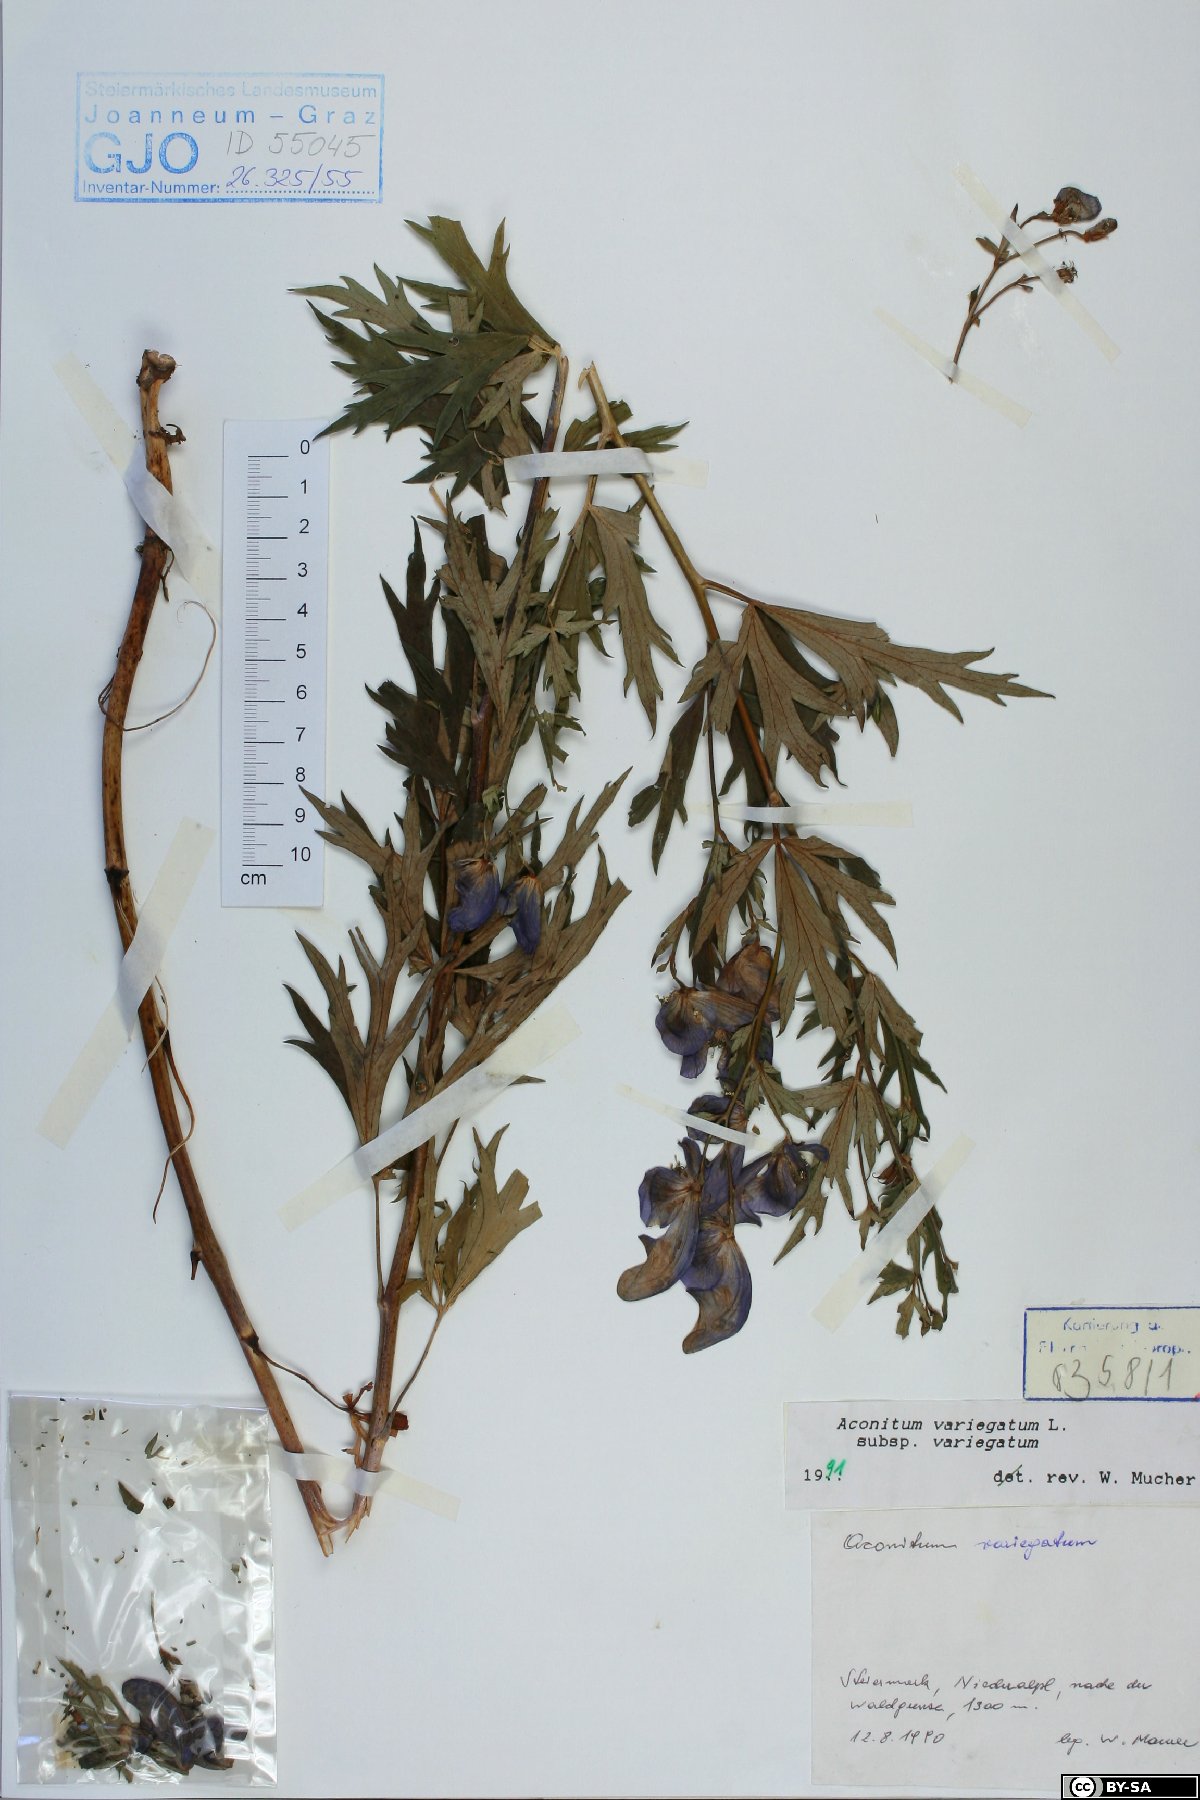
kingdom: Plantae
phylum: Tracheophyta
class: Magnoliopsida
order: Ranunculales
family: Ranunculaceae
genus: Aconitum
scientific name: Aconitum variegatum
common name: Manchurian monkshood
